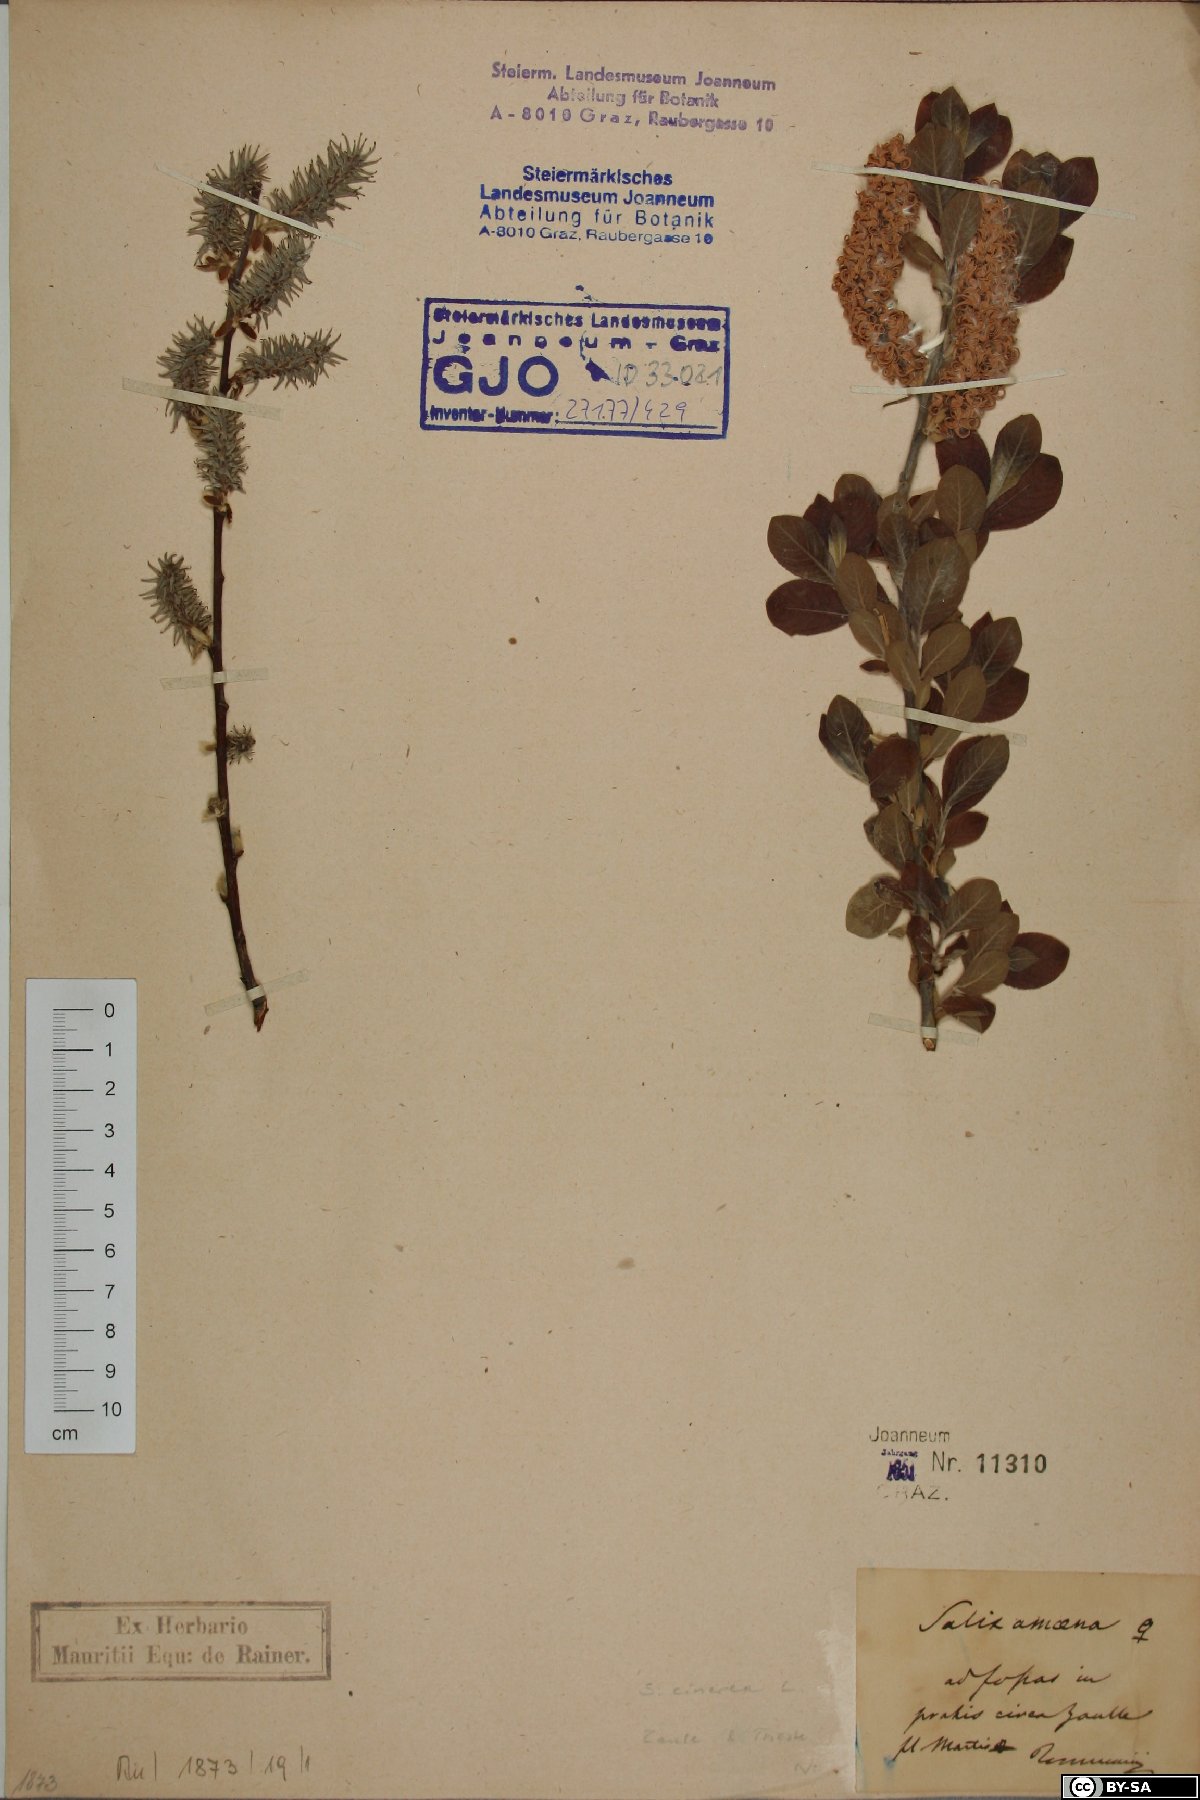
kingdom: Plantae
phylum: Tracheophyta
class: Magnoliopsida
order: Malpighiales
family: Salicaceae
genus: Salix
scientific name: Salix cinerea
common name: Common sallow
